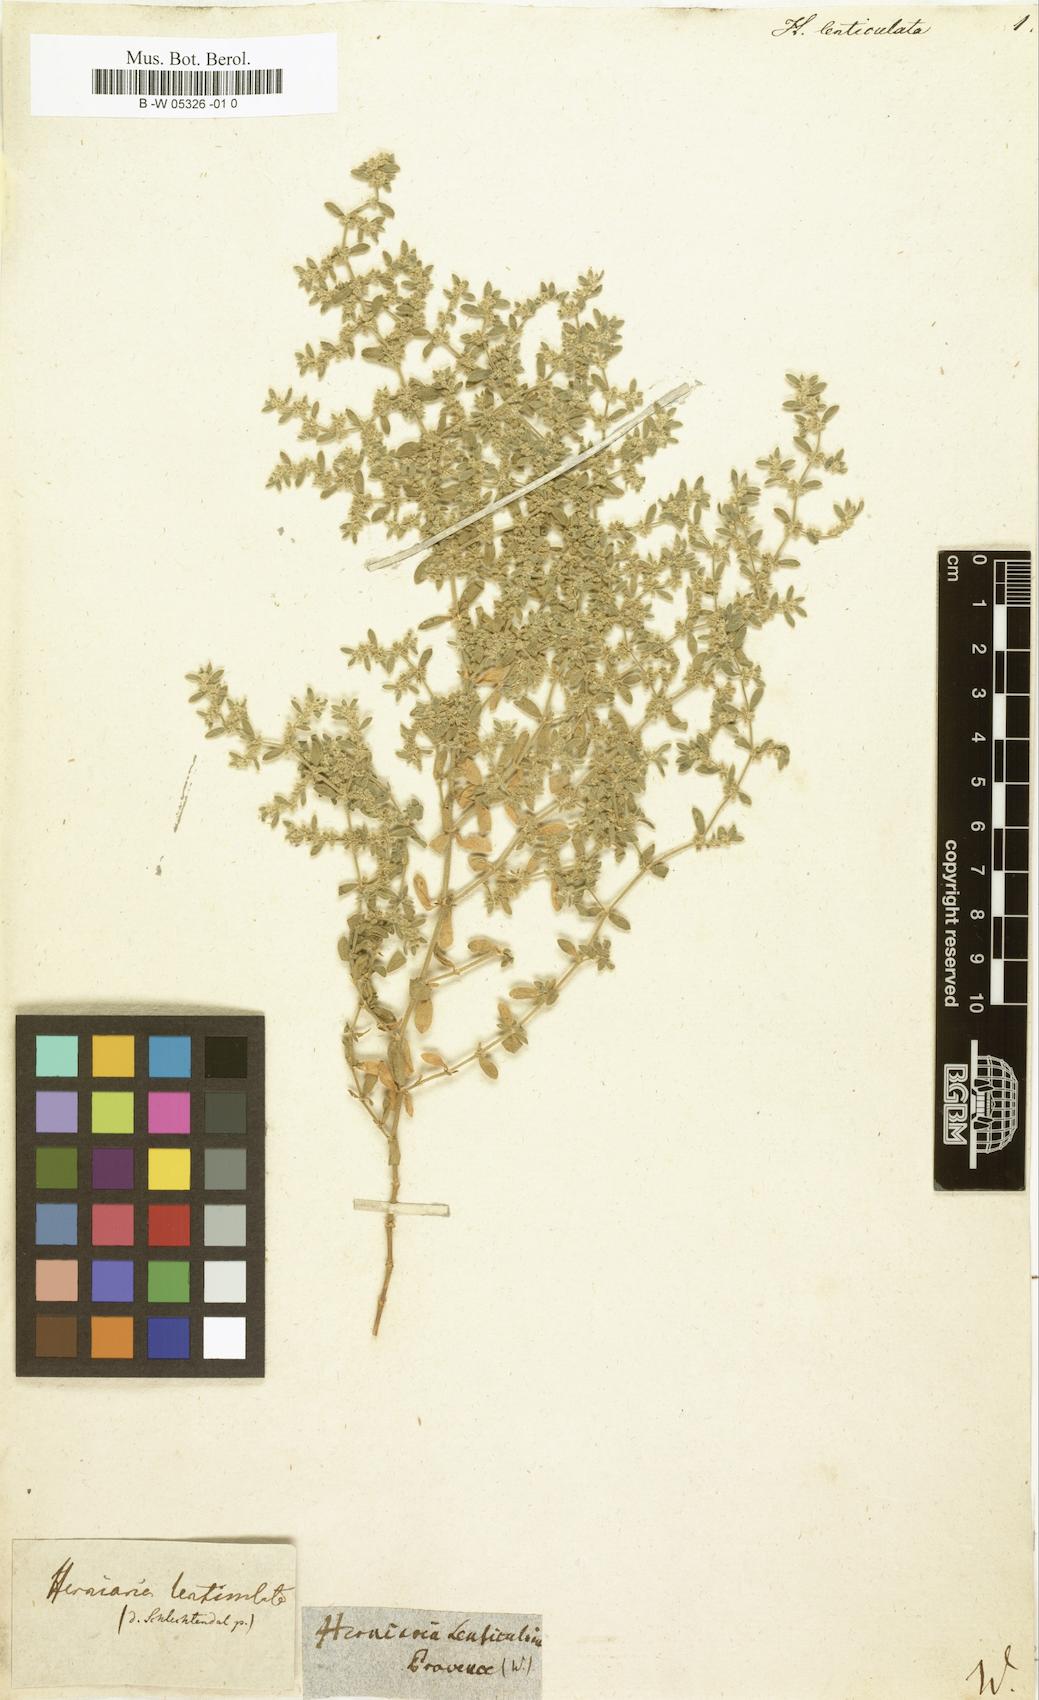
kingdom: Plantae
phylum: Tracheophyta
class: Magnoliopsida
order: Caryophyllales
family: Polygonaceae
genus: Polygonum
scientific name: Polygonum raii
